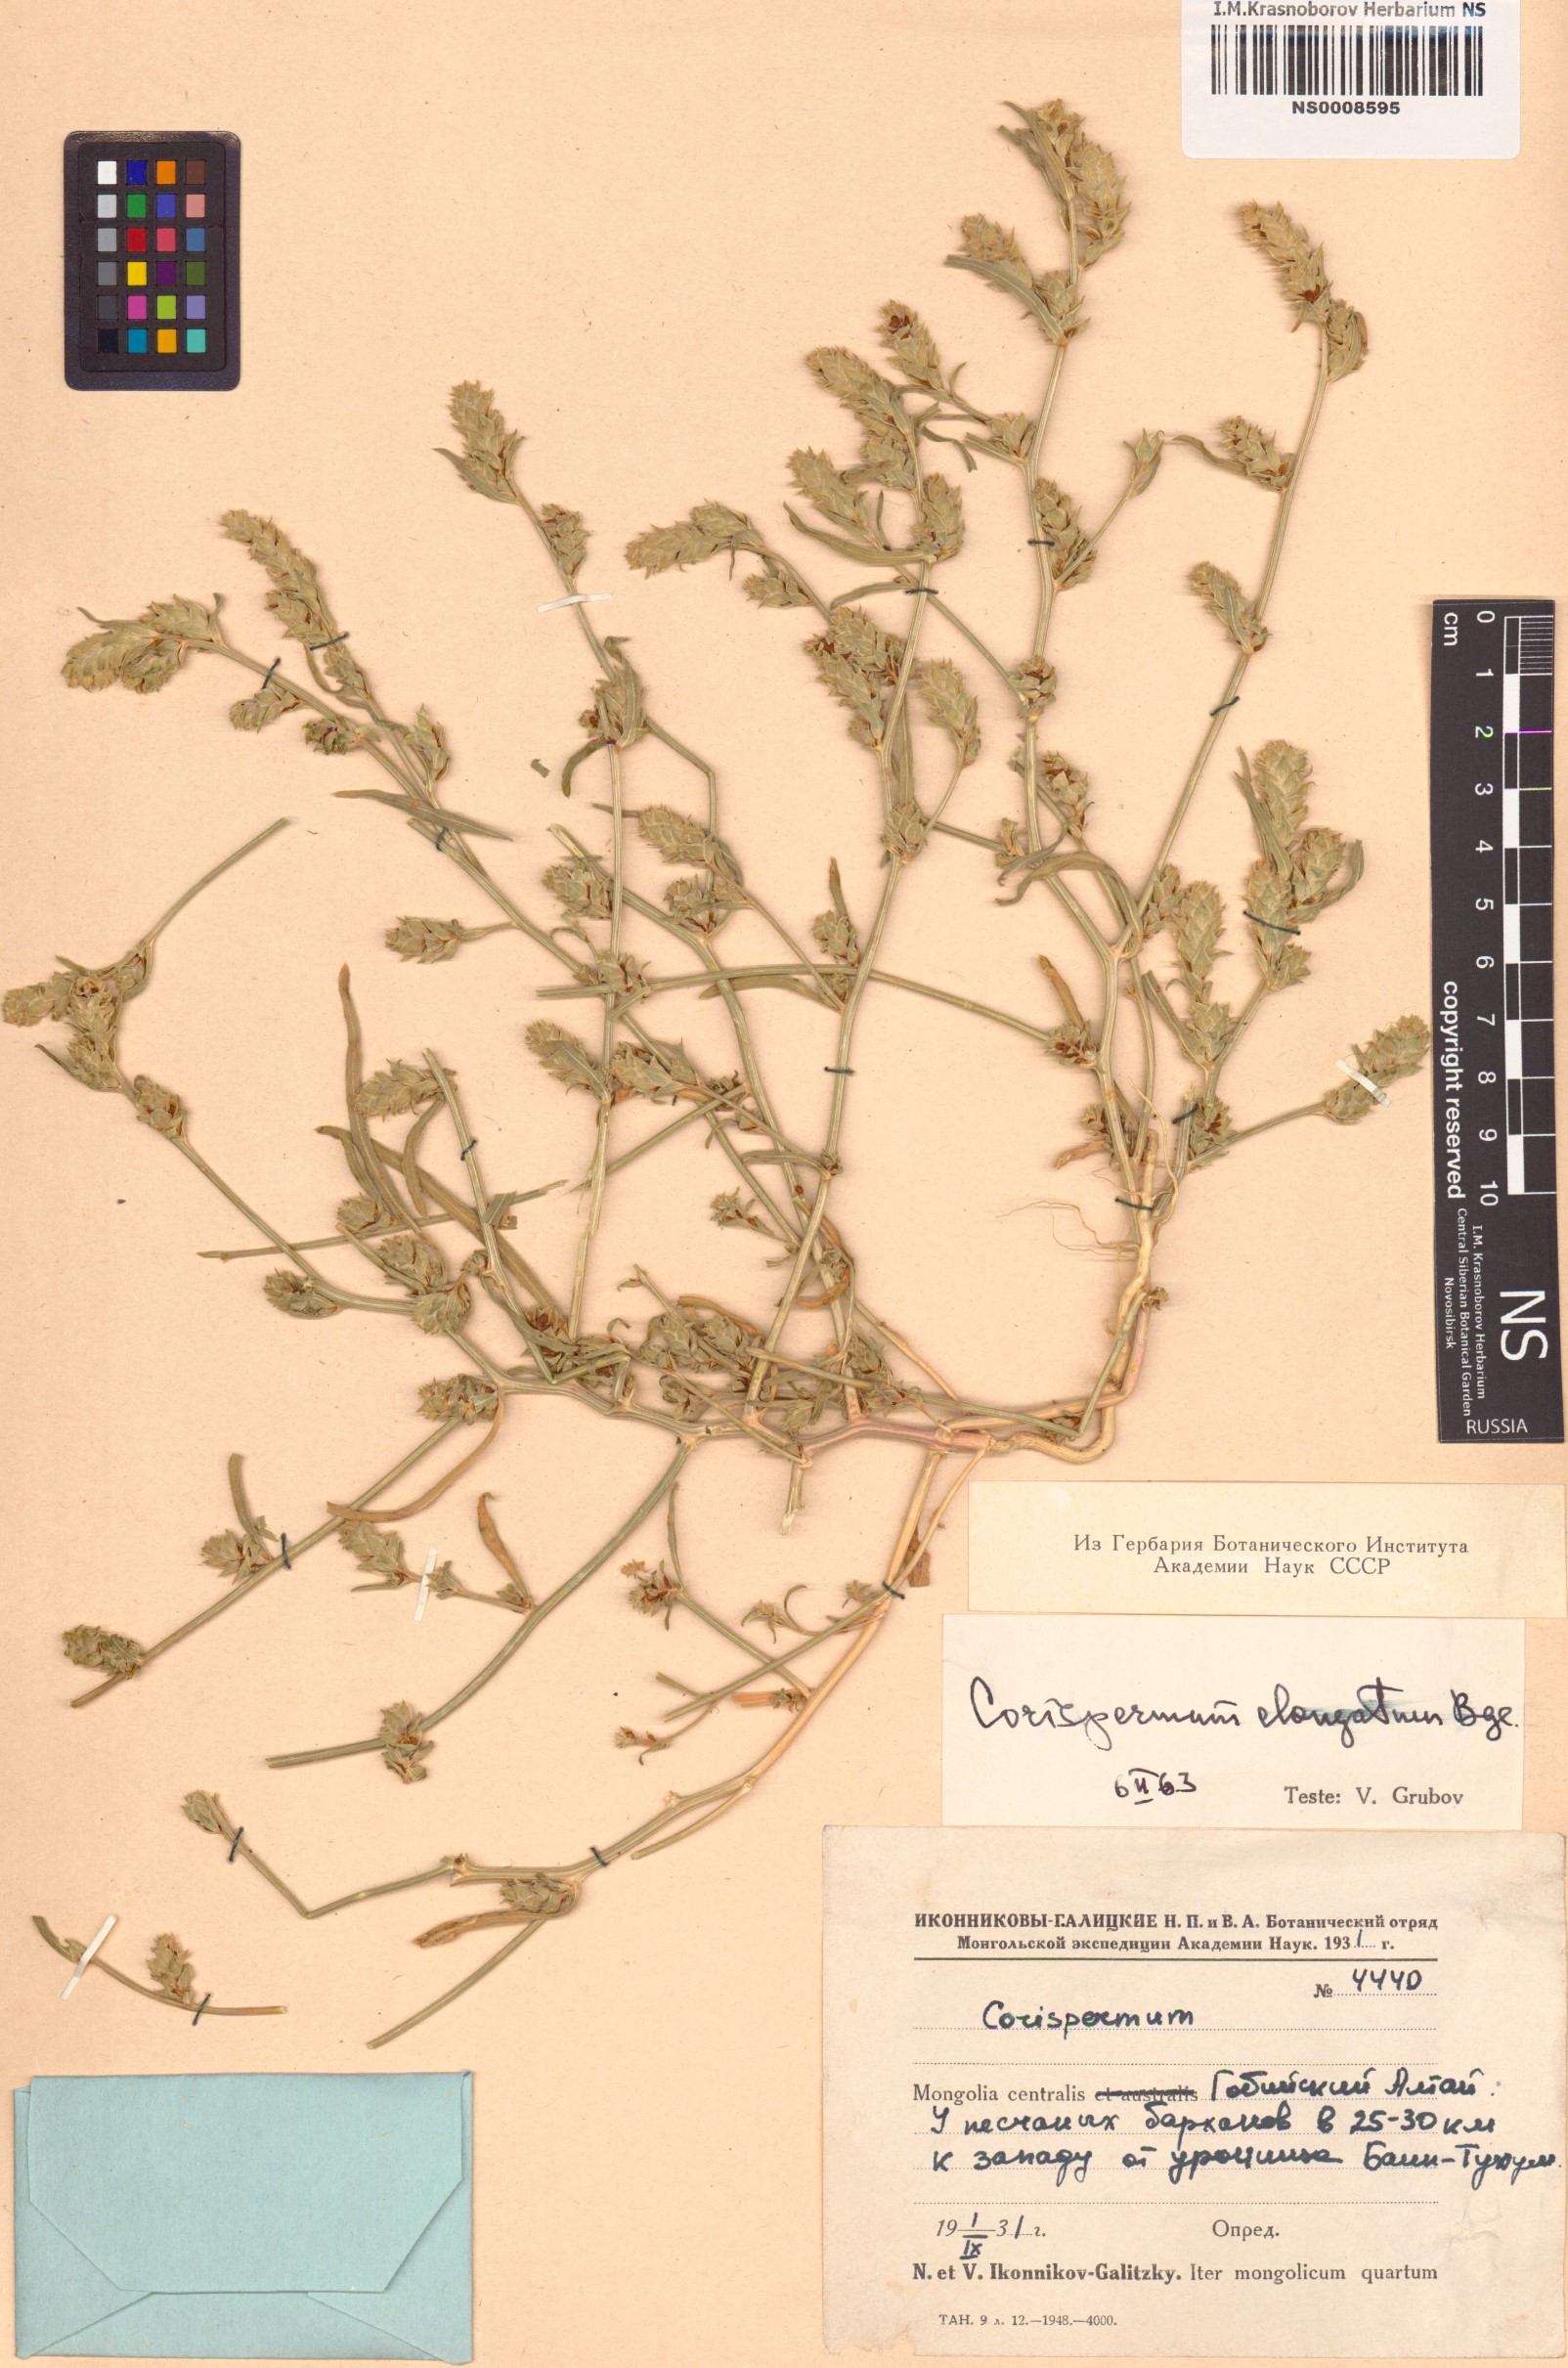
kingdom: Plantae
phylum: Tracheophyta
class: Magnoliopsida
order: Caryophyllales
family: Amaranthaceae
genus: Corispermum
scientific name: Corispermum elongatum
